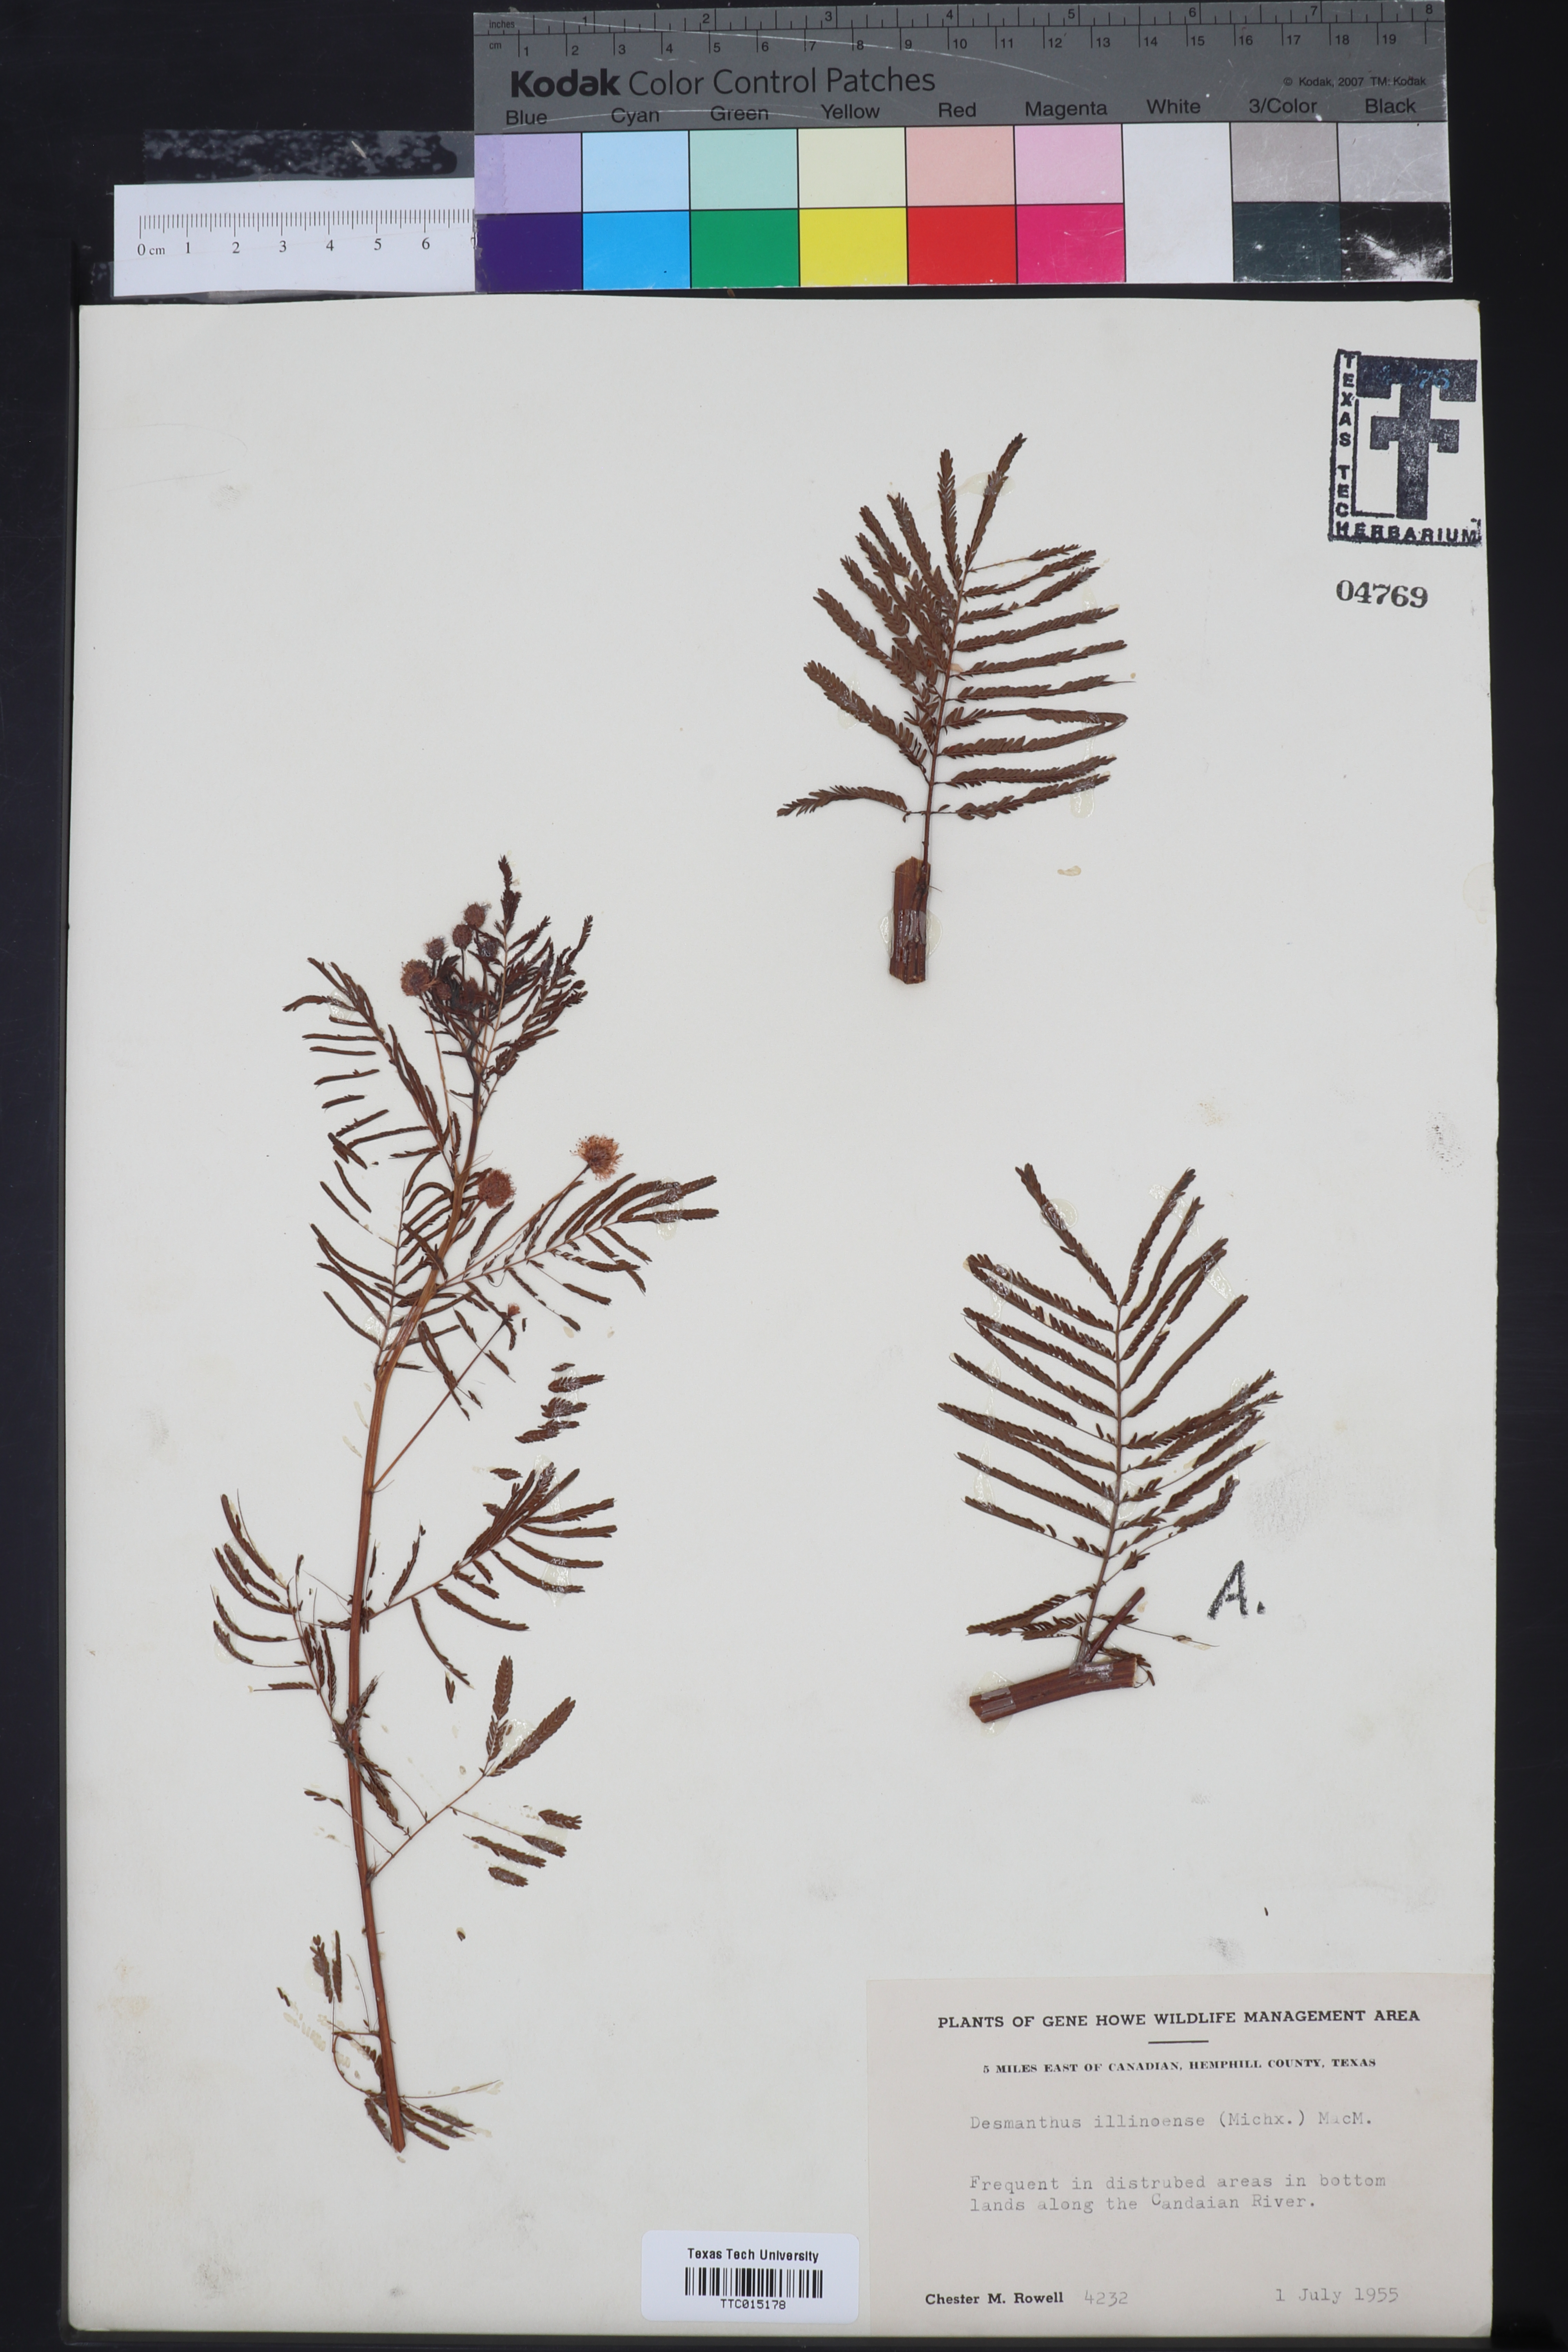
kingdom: Plantae
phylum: Tracheophyta
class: Magnoliopsida
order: Fabales
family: Fabaceae
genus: Desmanthus
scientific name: Desmanthus illinoensis
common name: Illinois bundle-flower
